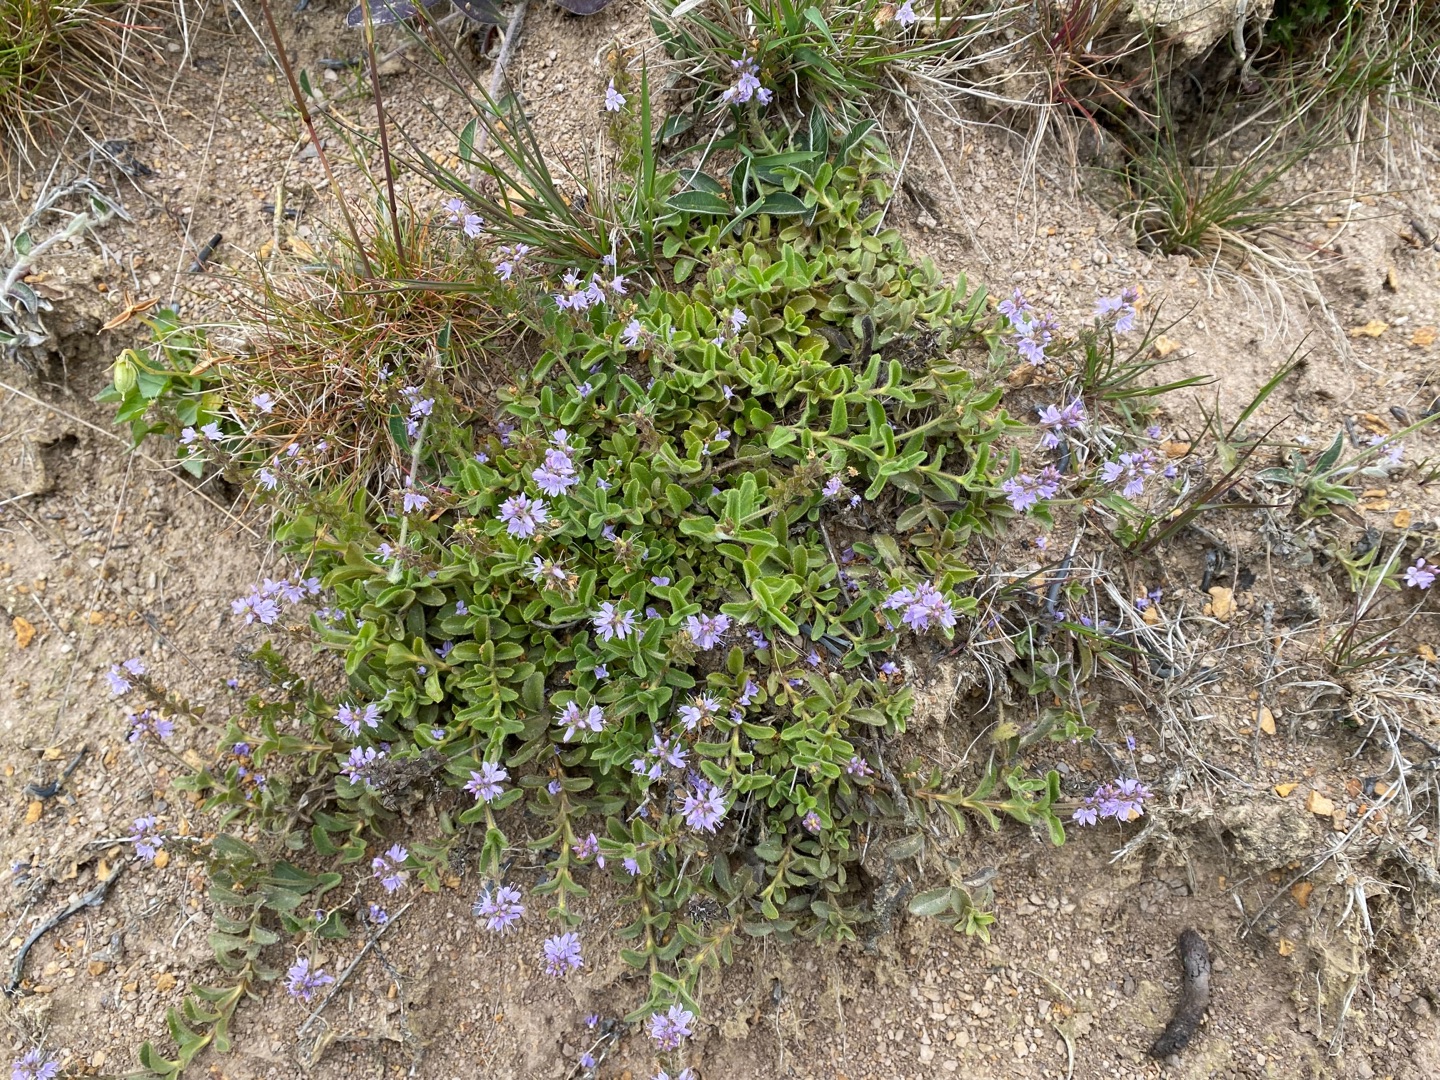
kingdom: Plantae
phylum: Tracheophyta
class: Magnoliopsida
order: Lamiales
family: Plantaginaceae
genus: Veronica
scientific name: Veronica officinalis
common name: Læge-ærenpris
